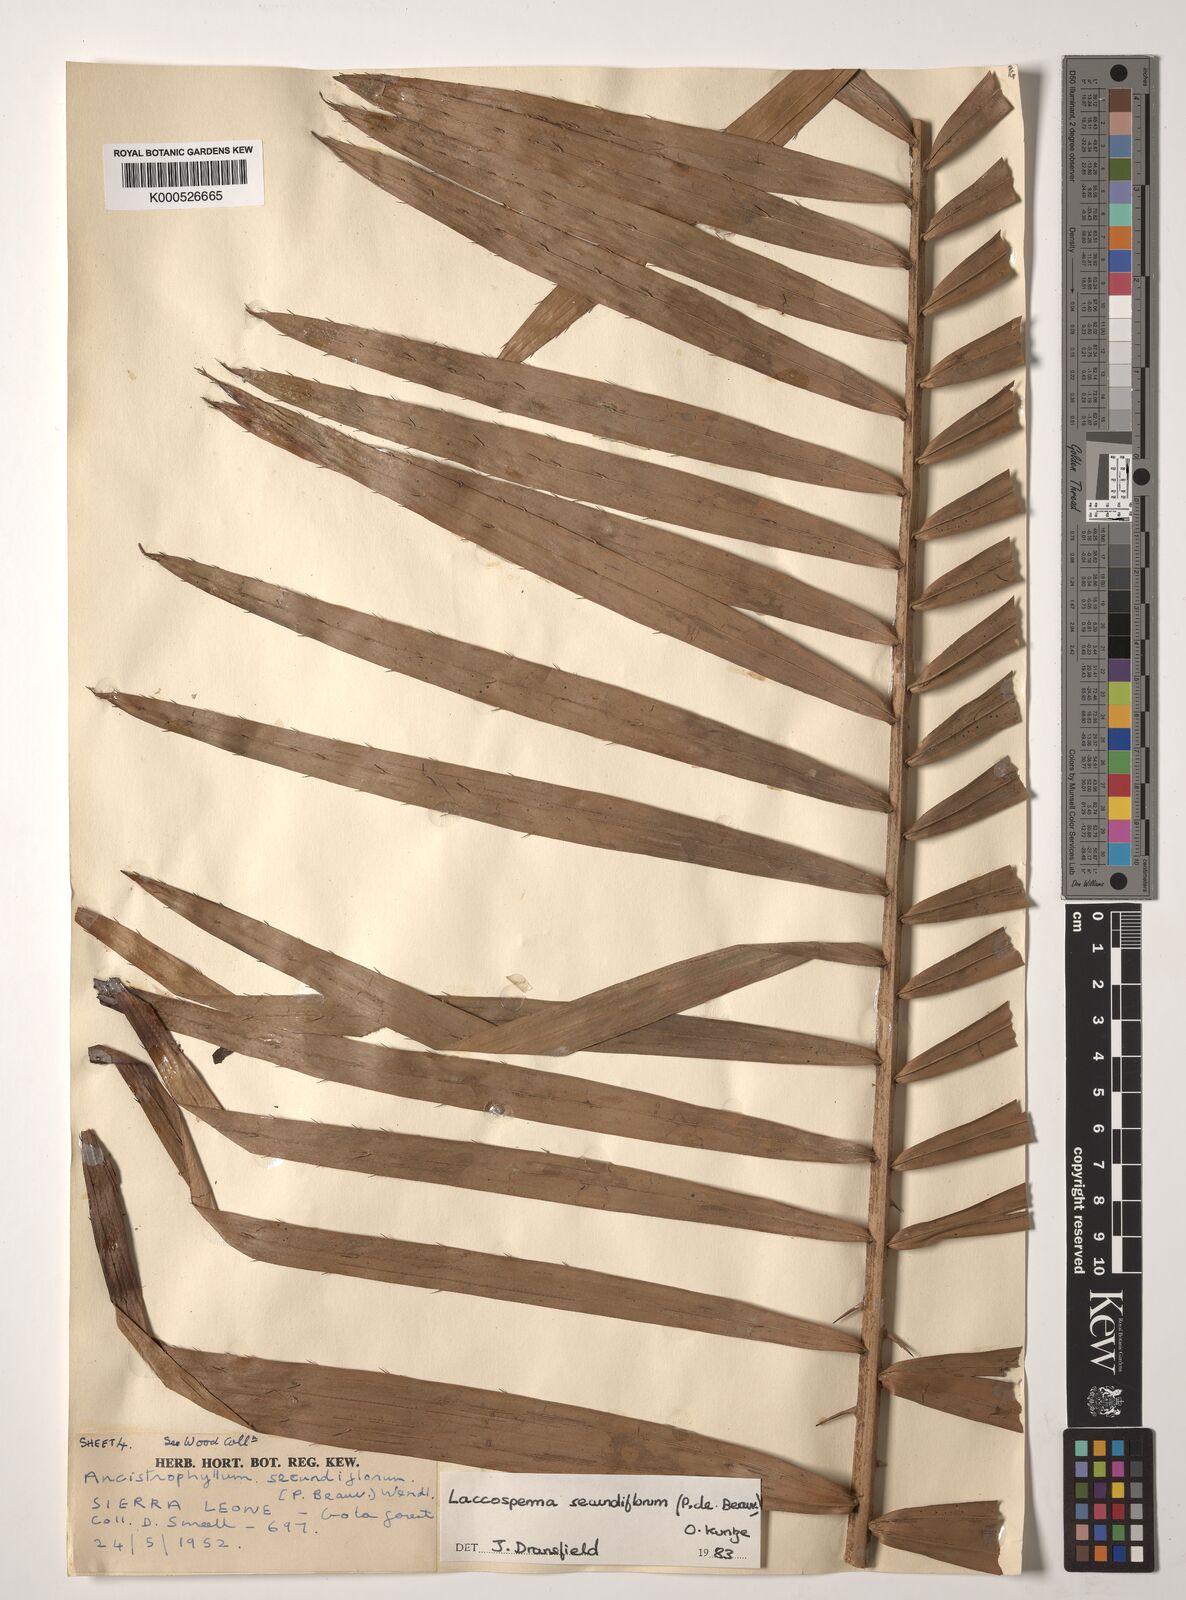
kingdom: Plantae
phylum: Tracheophyta
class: Liliopsida
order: Arecales
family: Arecaceae
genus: Laccosperma
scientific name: Laccosperma secundiflorum
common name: Rattan
